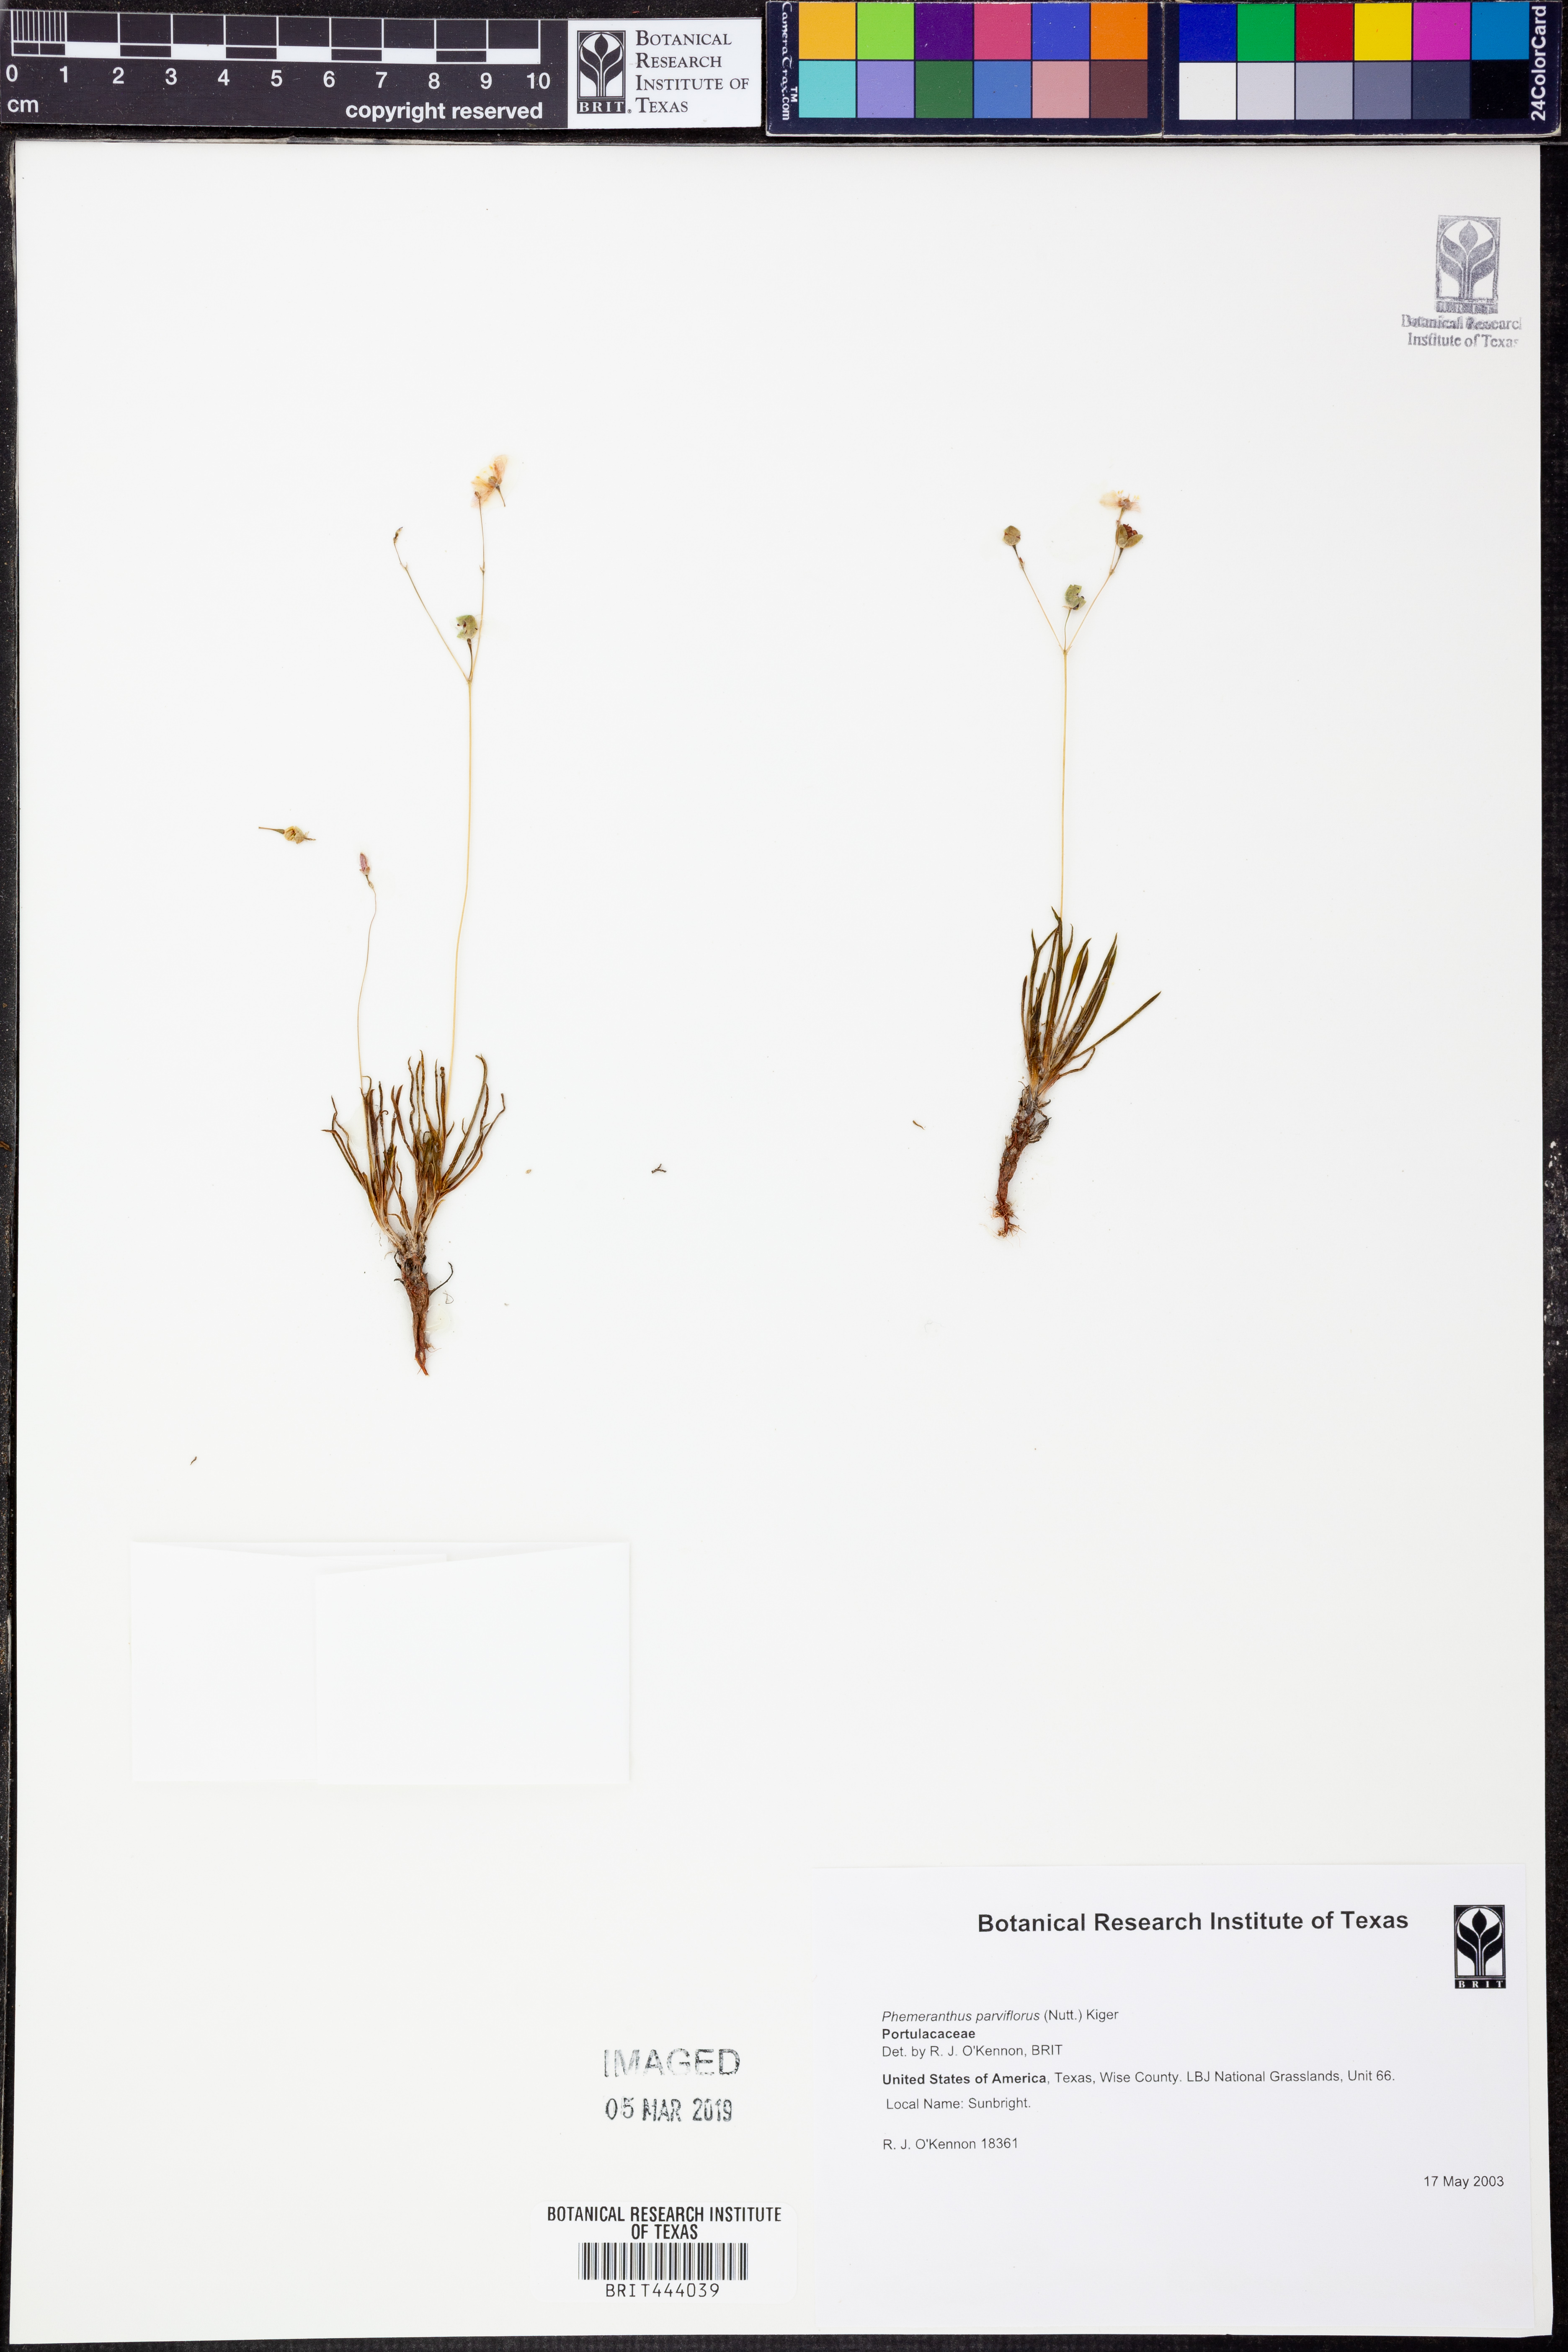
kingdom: Plantae
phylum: Tracheophyta
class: Magnoliopsida
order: Caryophyllales
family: Montiaceae
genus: Phemeranthus
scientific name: Phemeranthus parviflorus
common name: Sunbright
